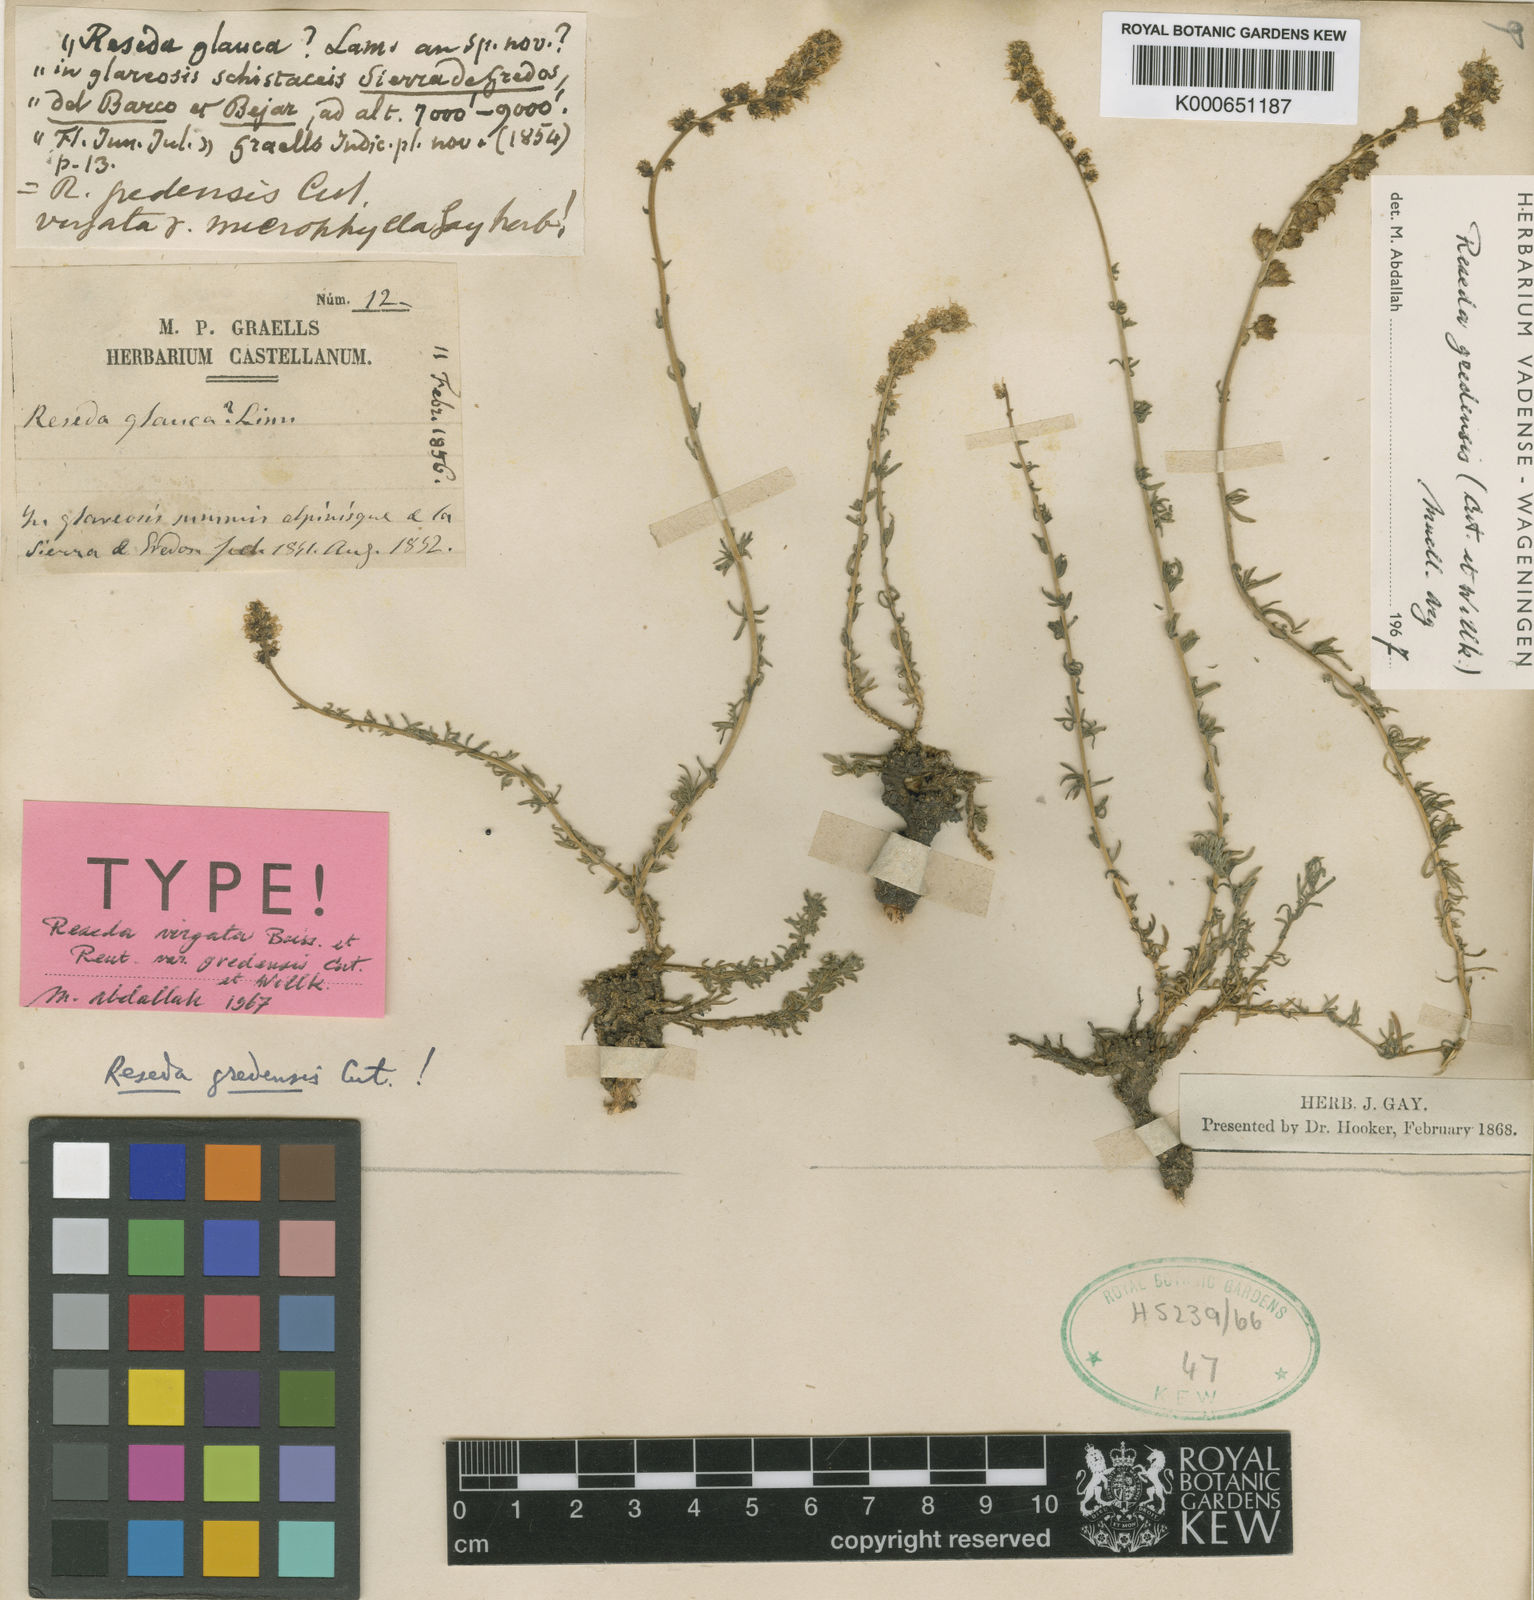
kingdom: Plantae
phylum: Tracheophyta
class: Magnoliopsida
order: Brassicales
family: Resedaceae
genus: Reseda
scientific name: Reseda
